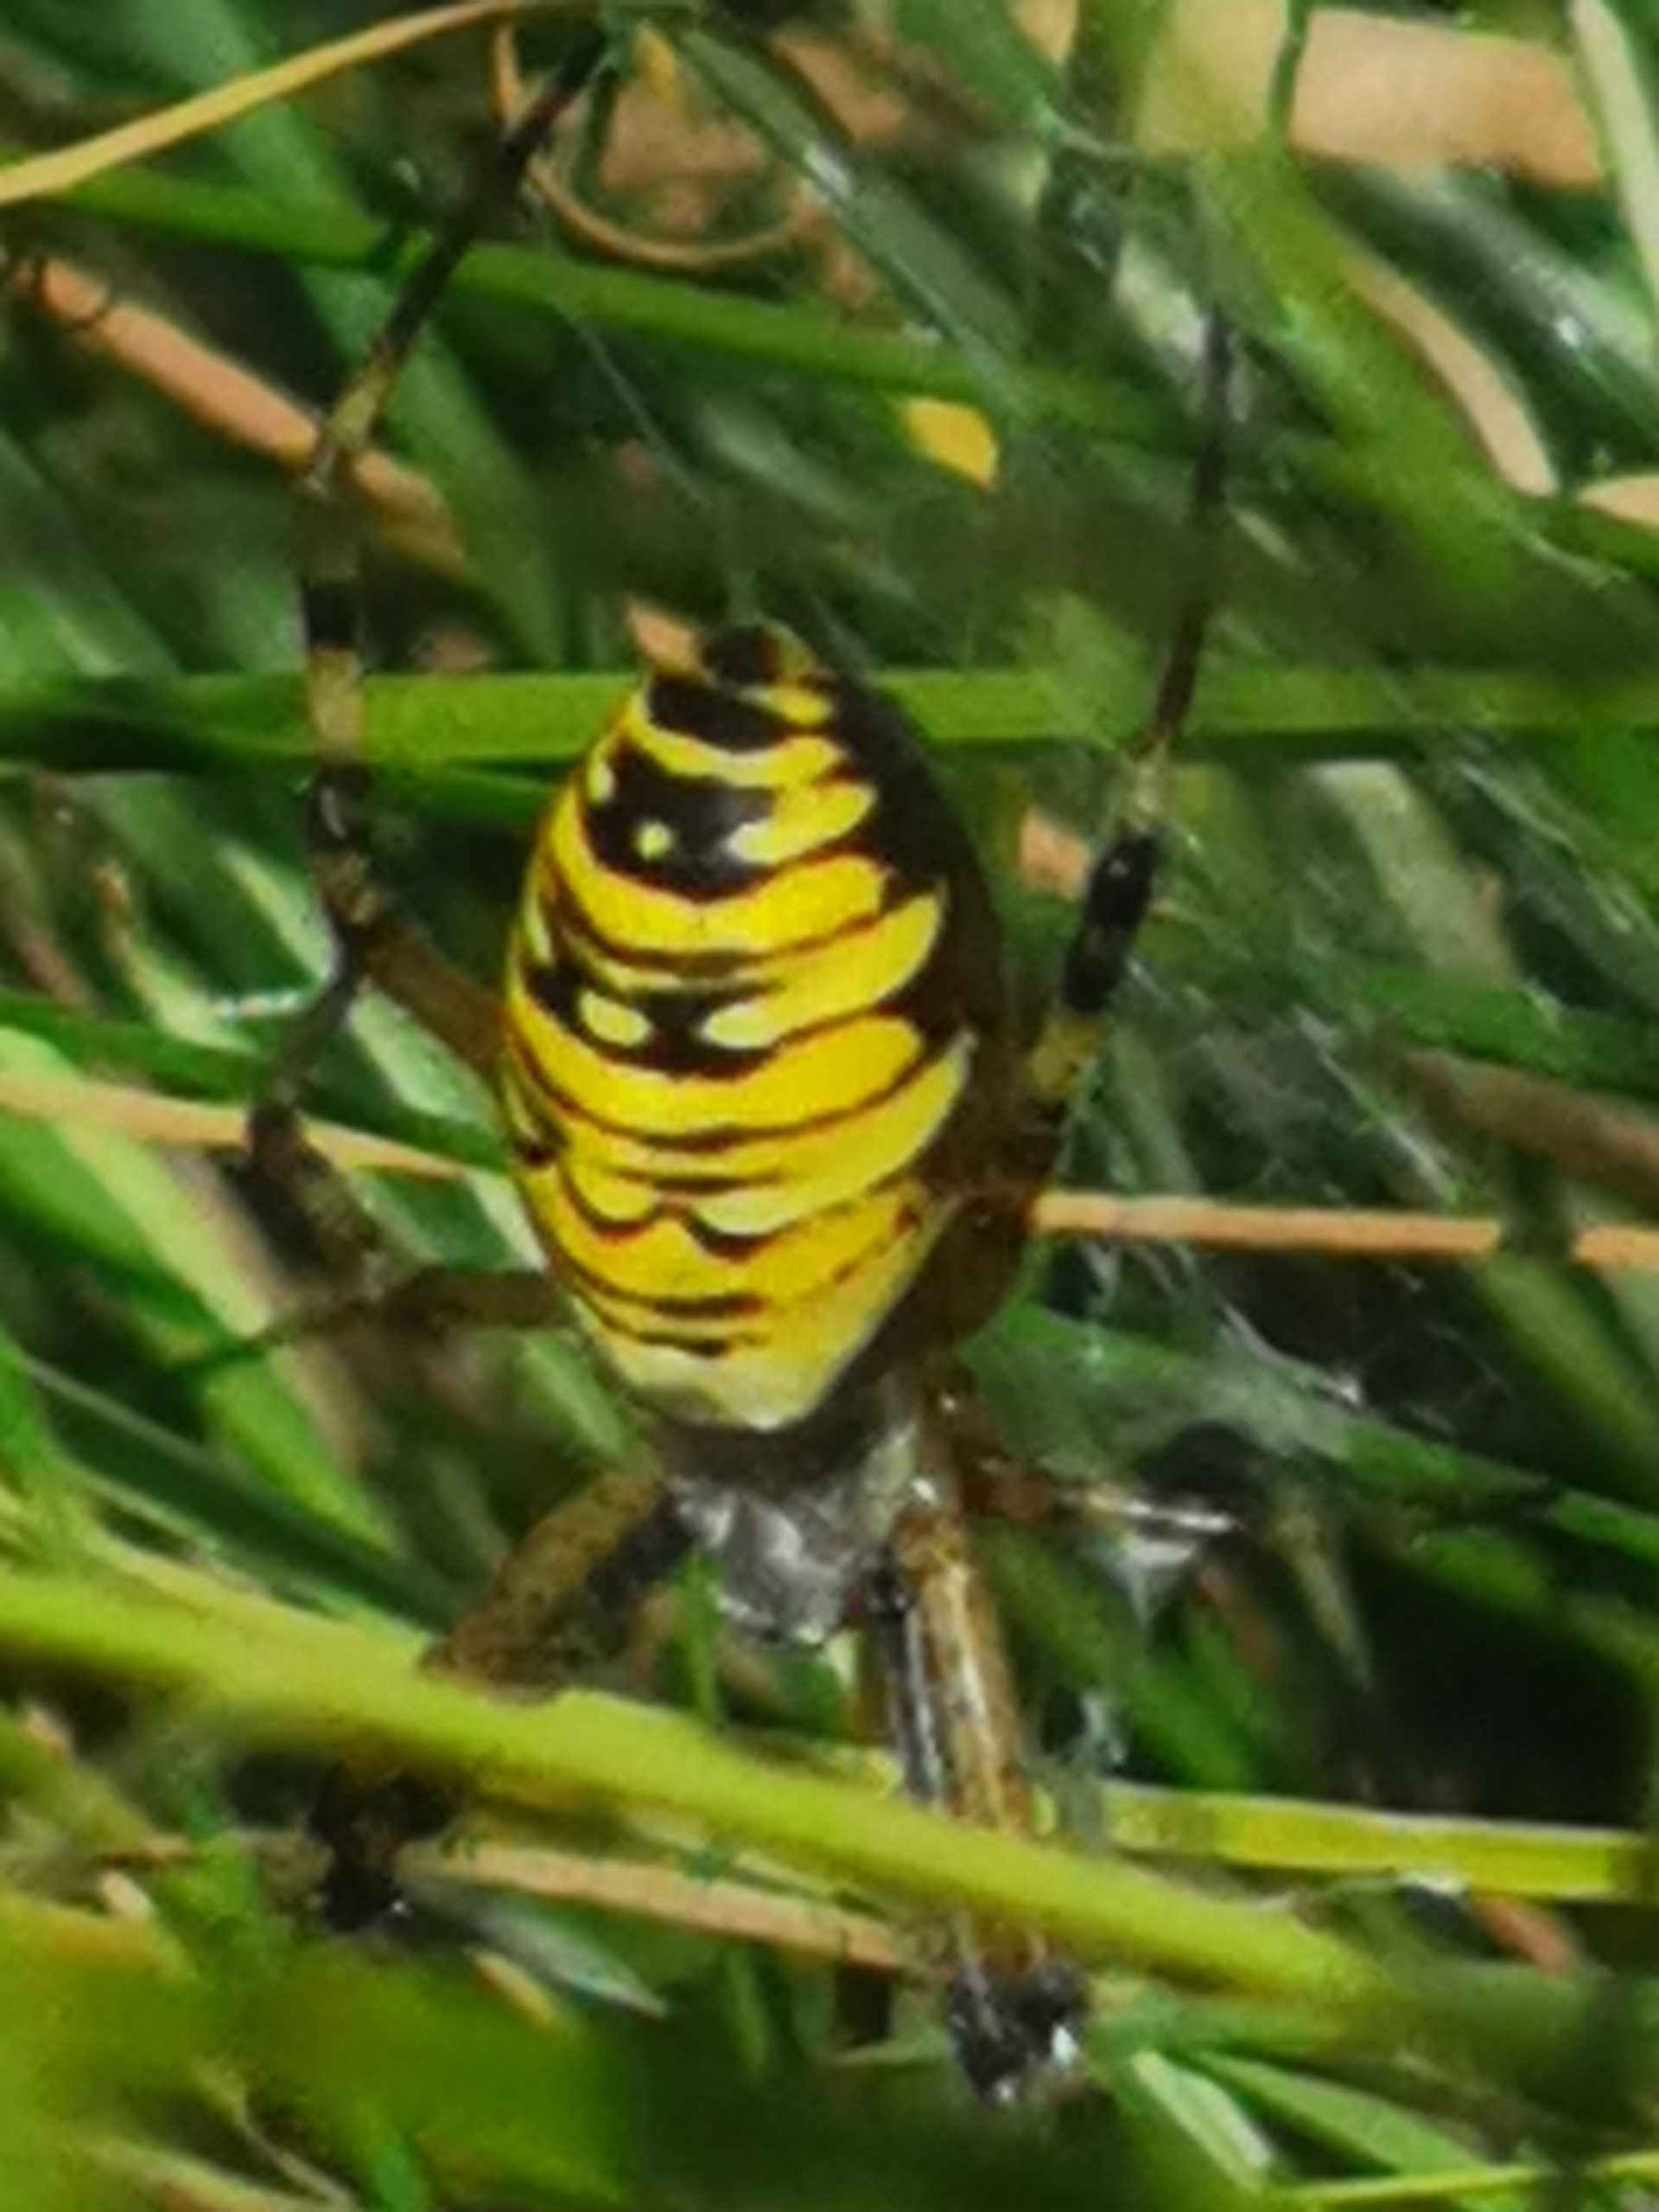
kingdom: Animalia
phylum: Arthropoda
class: Arachnida
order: Araneae
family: Araneidae
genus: Argiope
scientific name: Argiope bruennichi
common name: Hvepseedderkop
